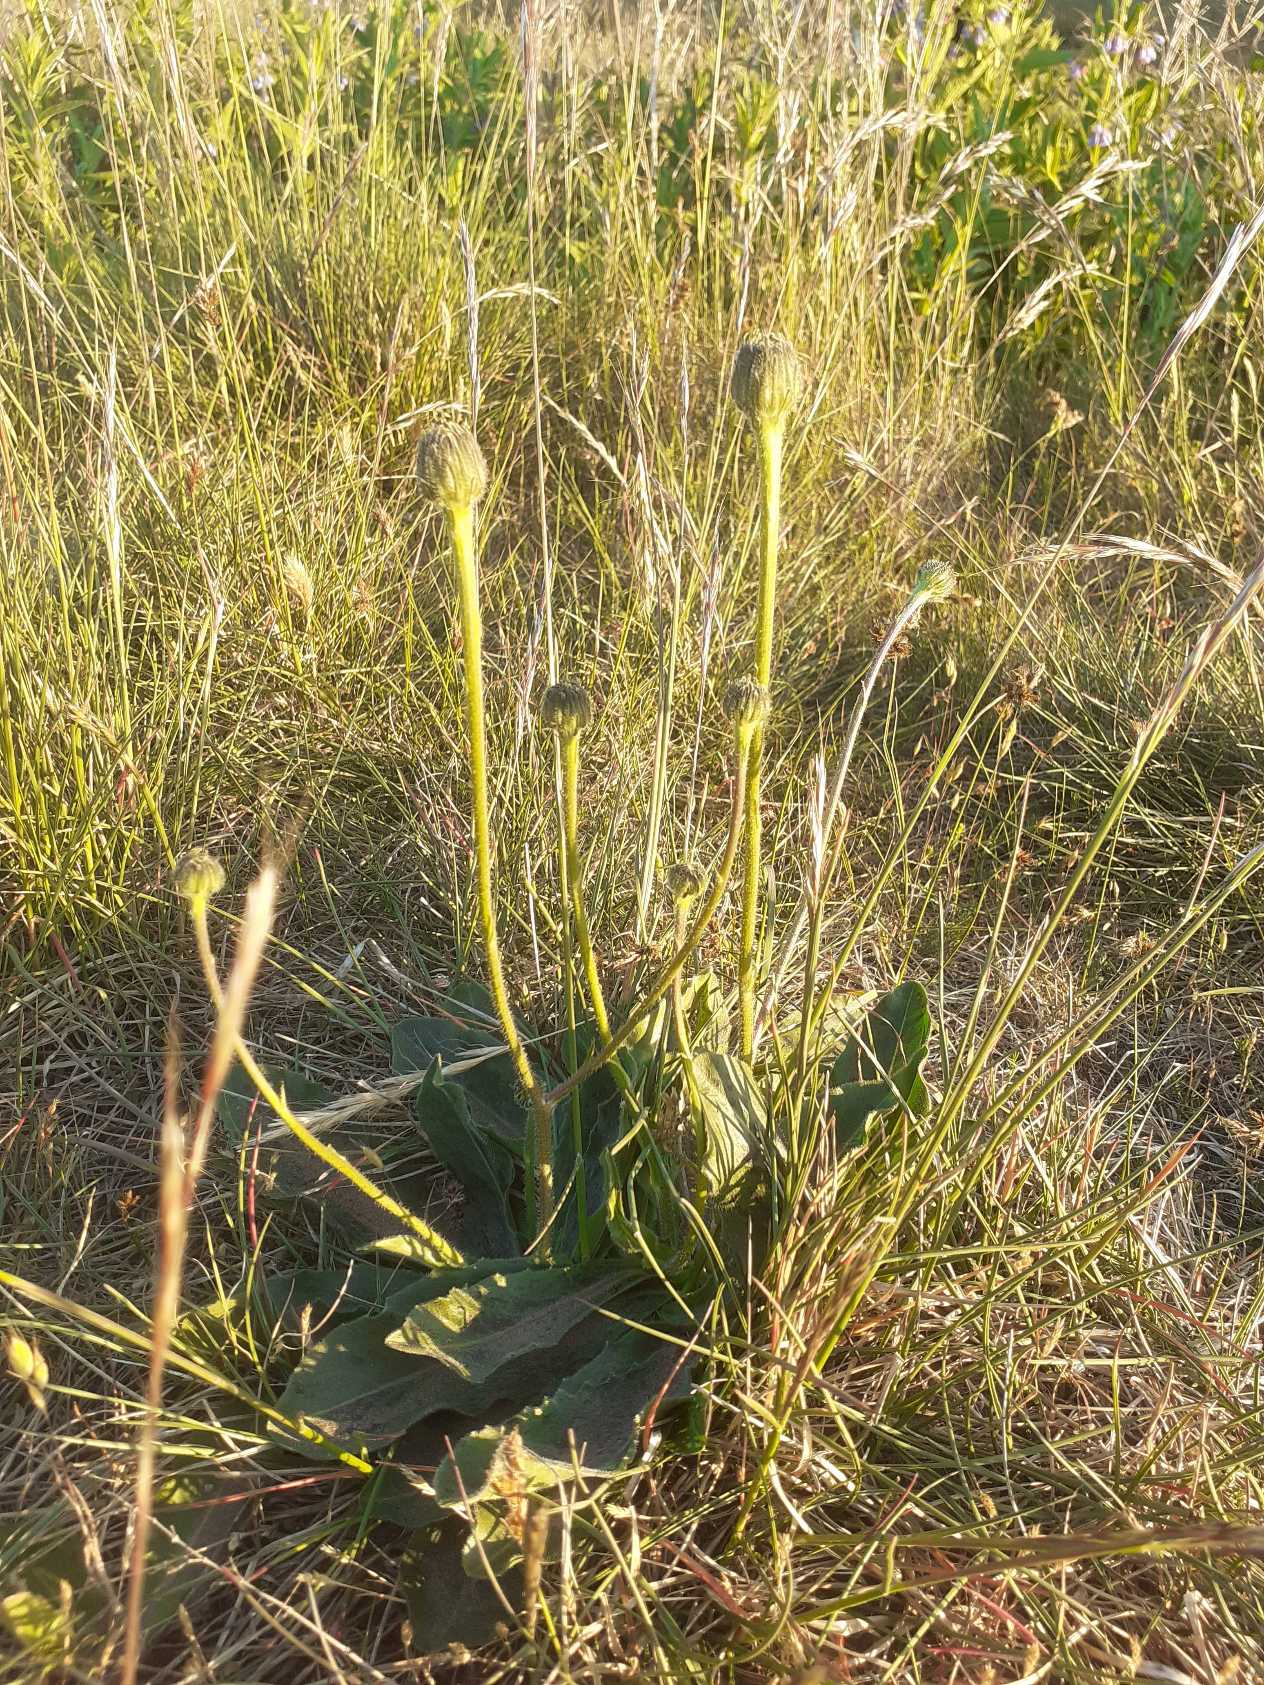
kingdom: Plantae
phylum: Tracheophyta
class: Magnoliopsida
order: Asterales
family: Asteraceae
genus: Trommsdorffia
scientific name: Trommsdorffia maculata
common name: Plettet kongepen
